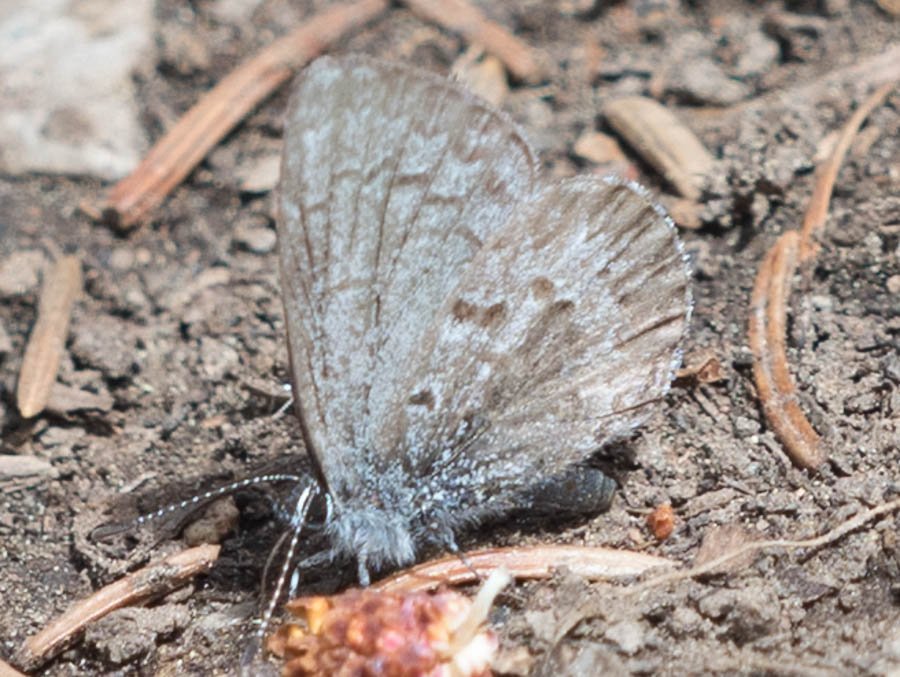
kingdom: Animalia
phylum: Arthropoda
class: Insecta
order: Lepidoptera
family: Lycaenidae
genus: Celastrina
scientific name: Celastrina lucia
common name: Northern Spring Azure
